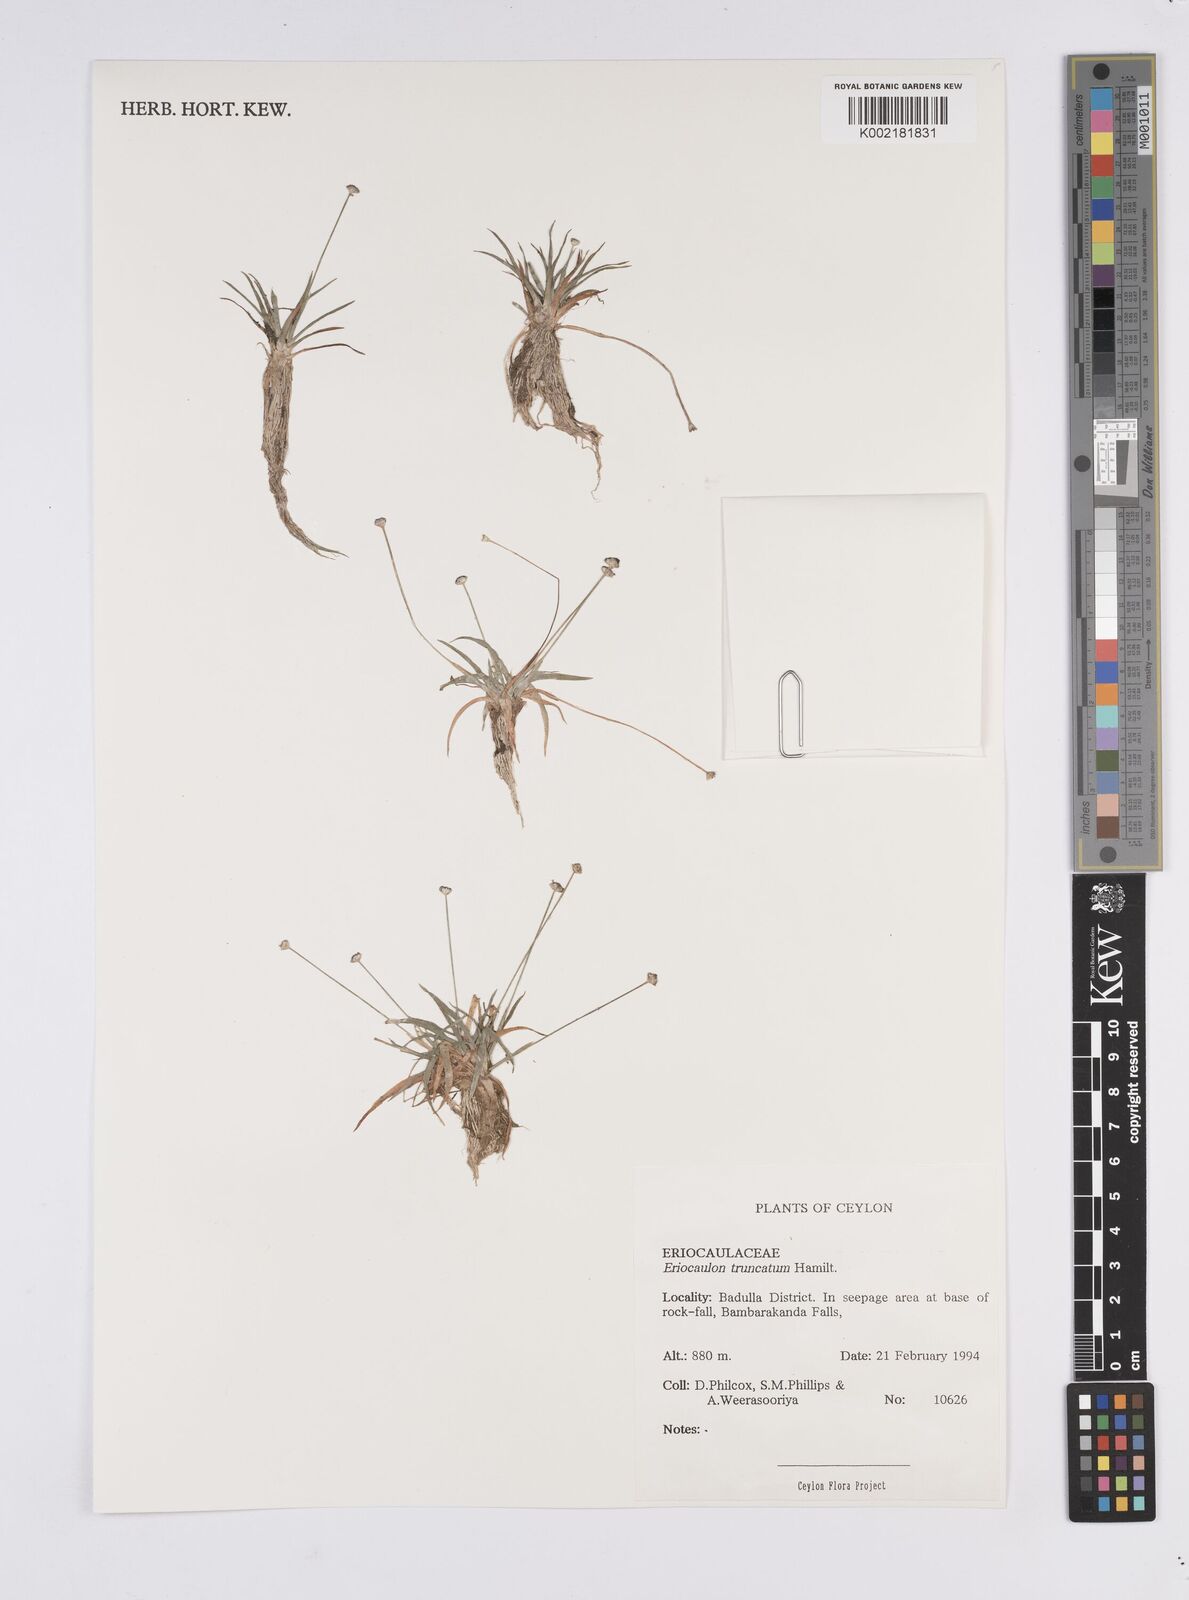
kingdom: Plantae
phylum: Tracheophyta
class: Liliopsida
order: Poales
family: Eriocaulaceae
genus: Eriocaulon
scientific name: Eriocaulon truncatum
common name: Short pipe-wort
